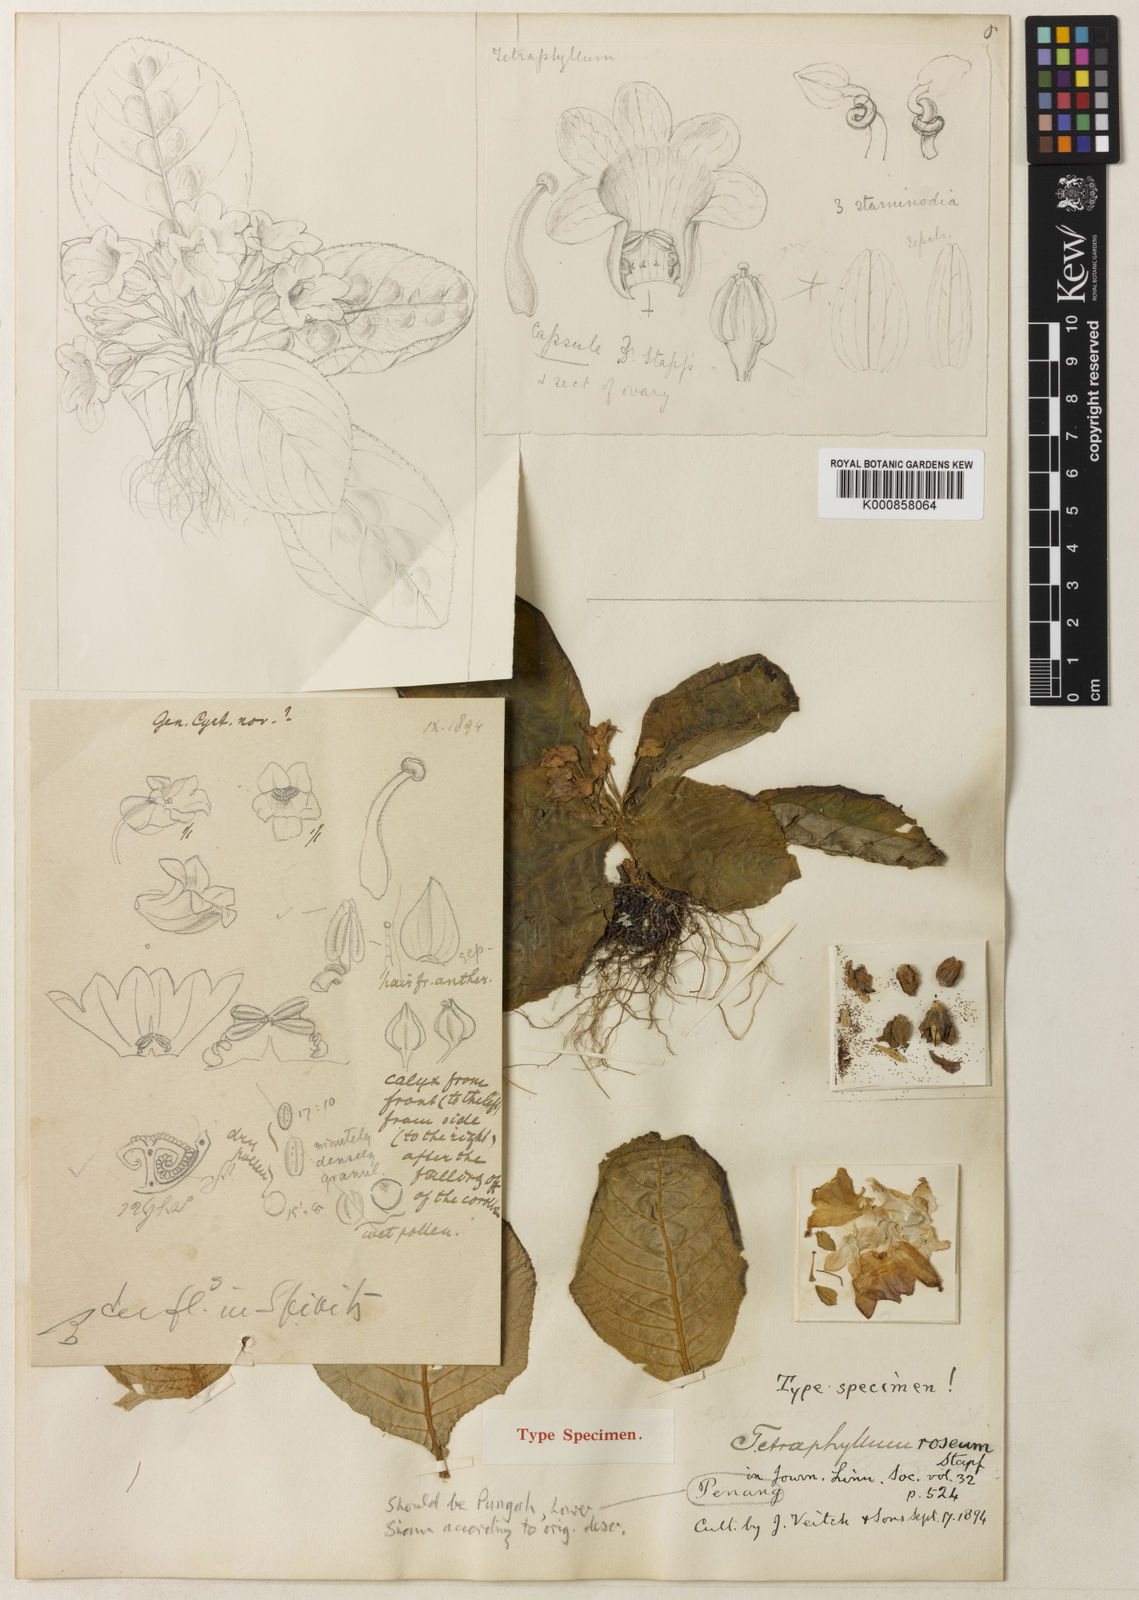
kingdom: Plantae
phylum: Tracheophyta
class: Magnoliopsida
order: Lamiales
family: Gesneriaceae
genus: Tetraphylloides
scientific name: Tetraphylloides roseus
